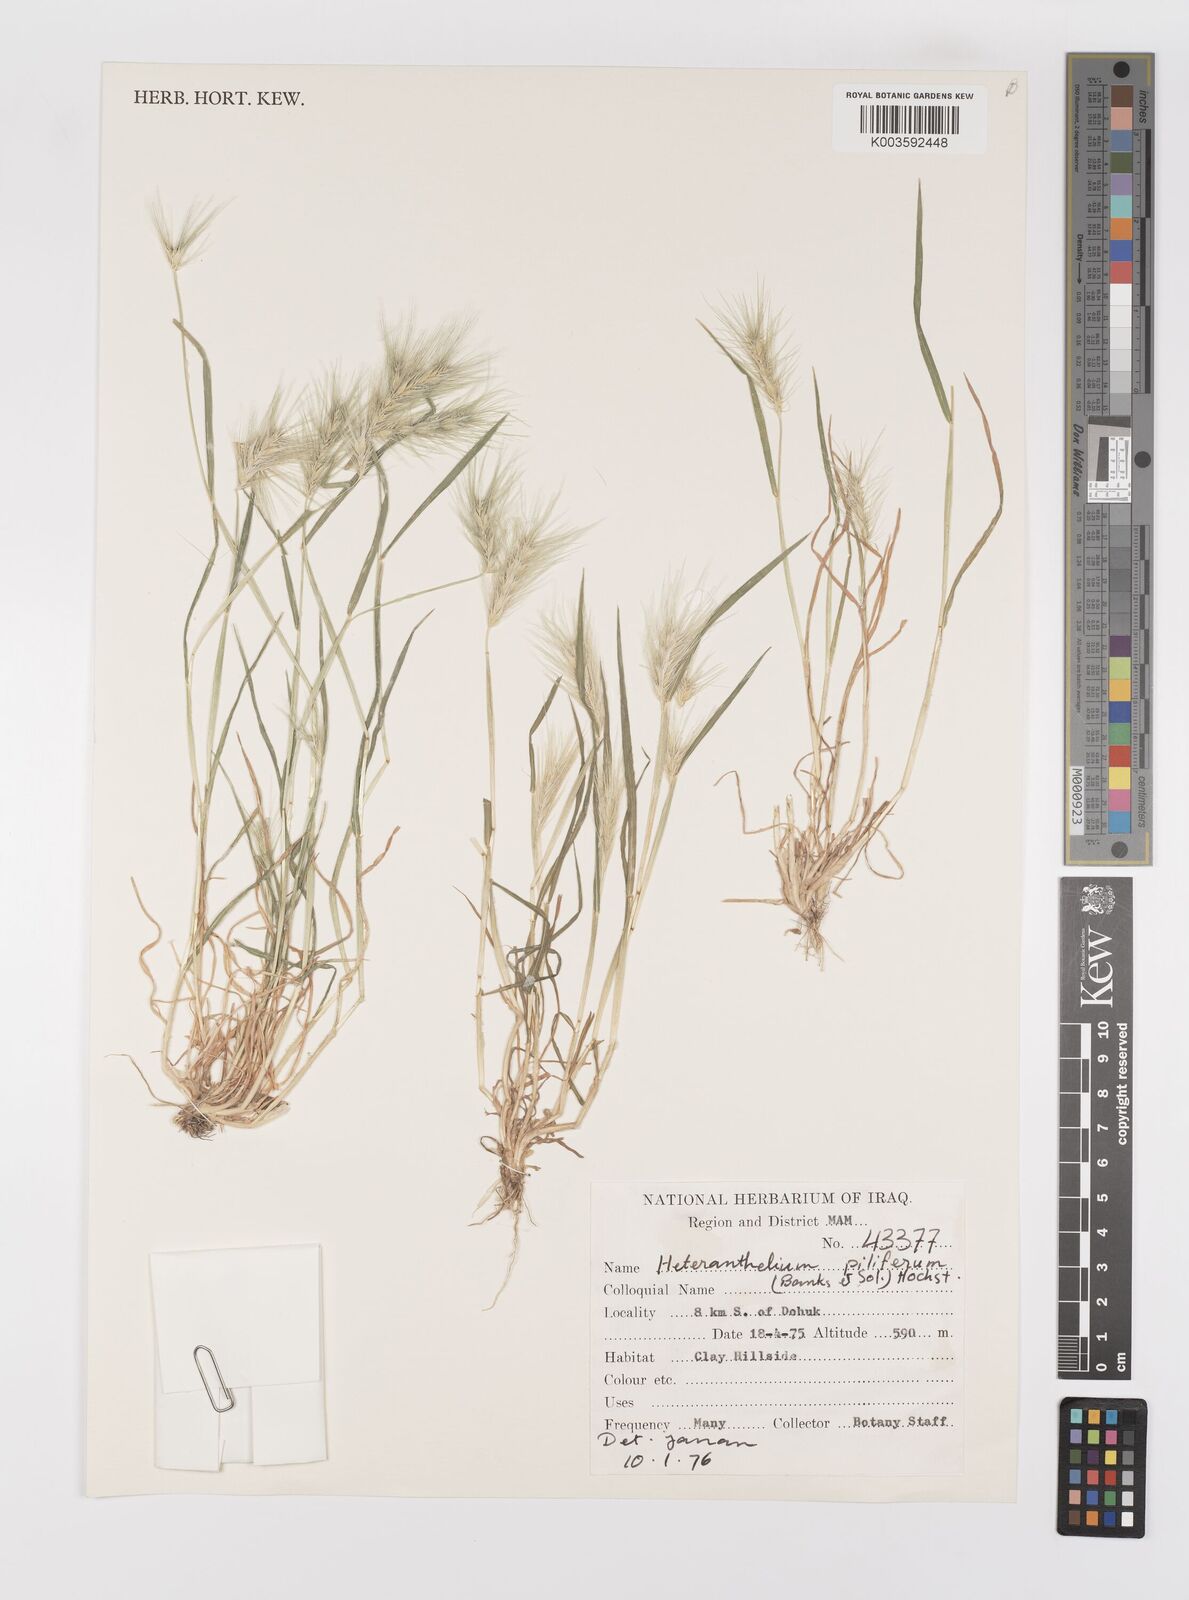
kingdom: Plantae
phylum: Tracheophyta
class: Liliopsida
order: Poales
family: Poaceae
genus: Heteranthelium
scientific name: Heteranthelium piliferum
